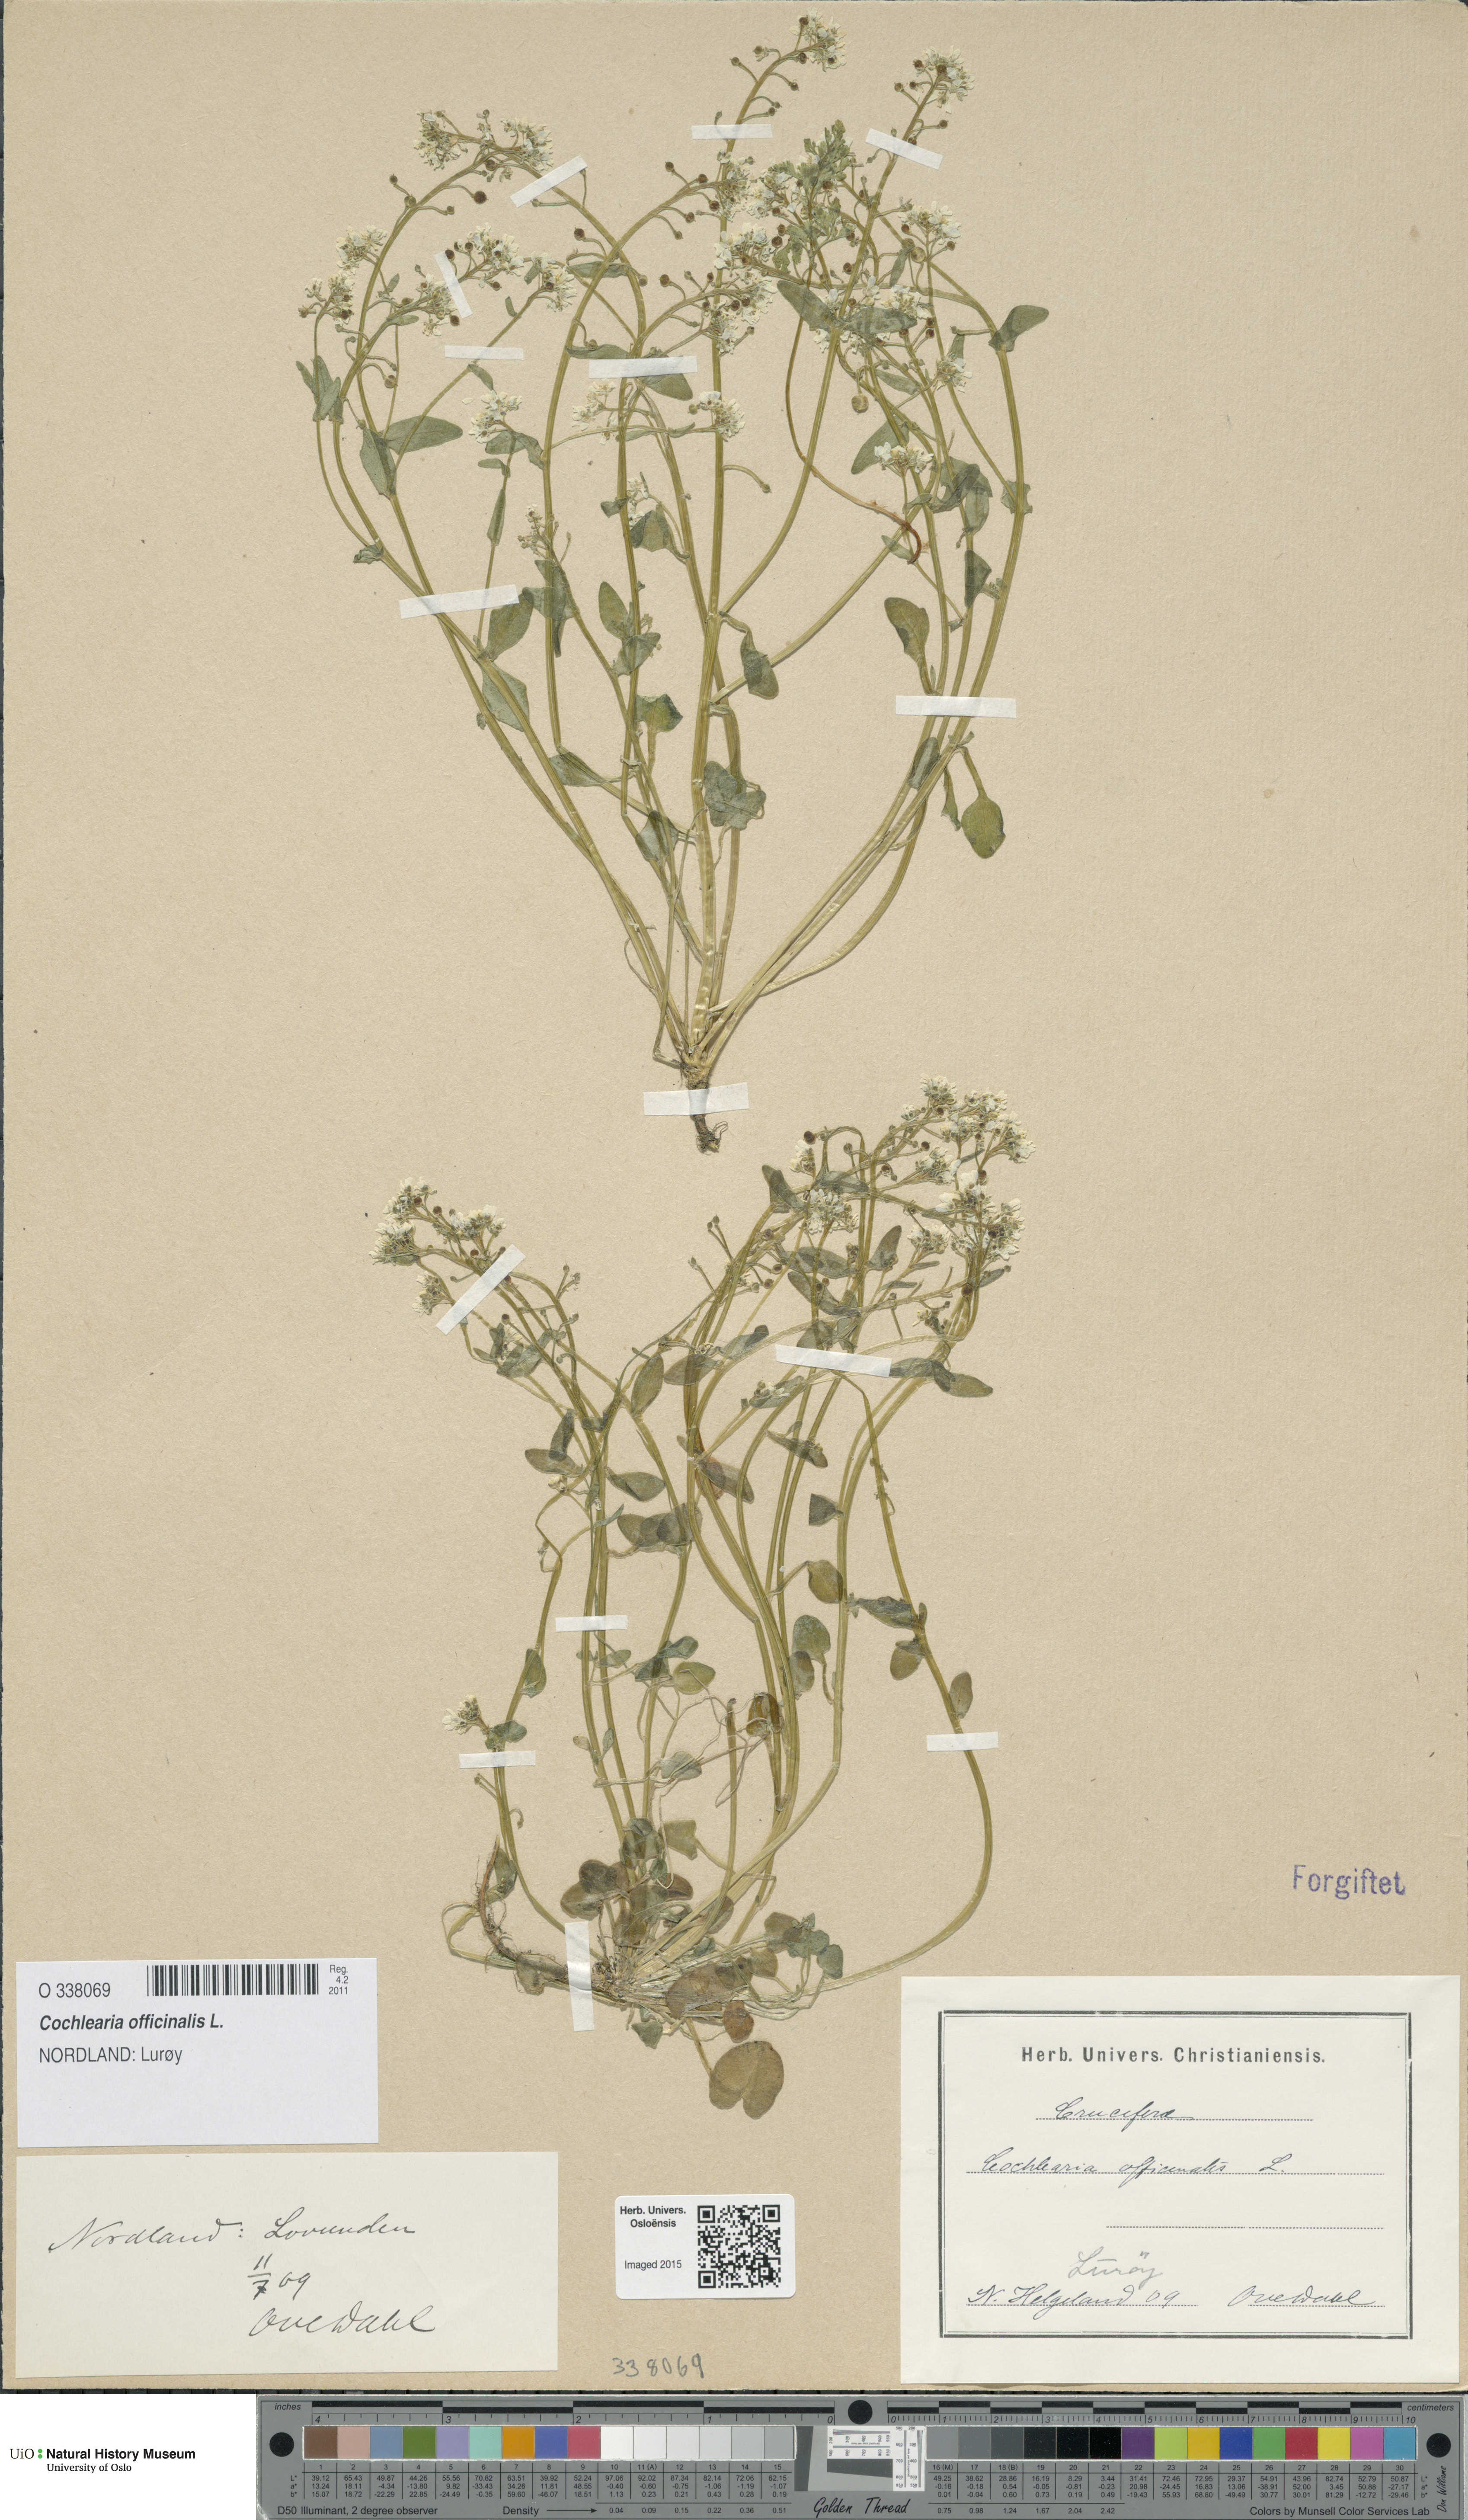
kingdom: Plantae
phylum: Tracheophyta
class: Magnoliopsida
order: Brassicales
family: Brassicaceae
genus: Cochlearia
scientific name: Cochlearia officinalis
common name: Scurvy-grass
